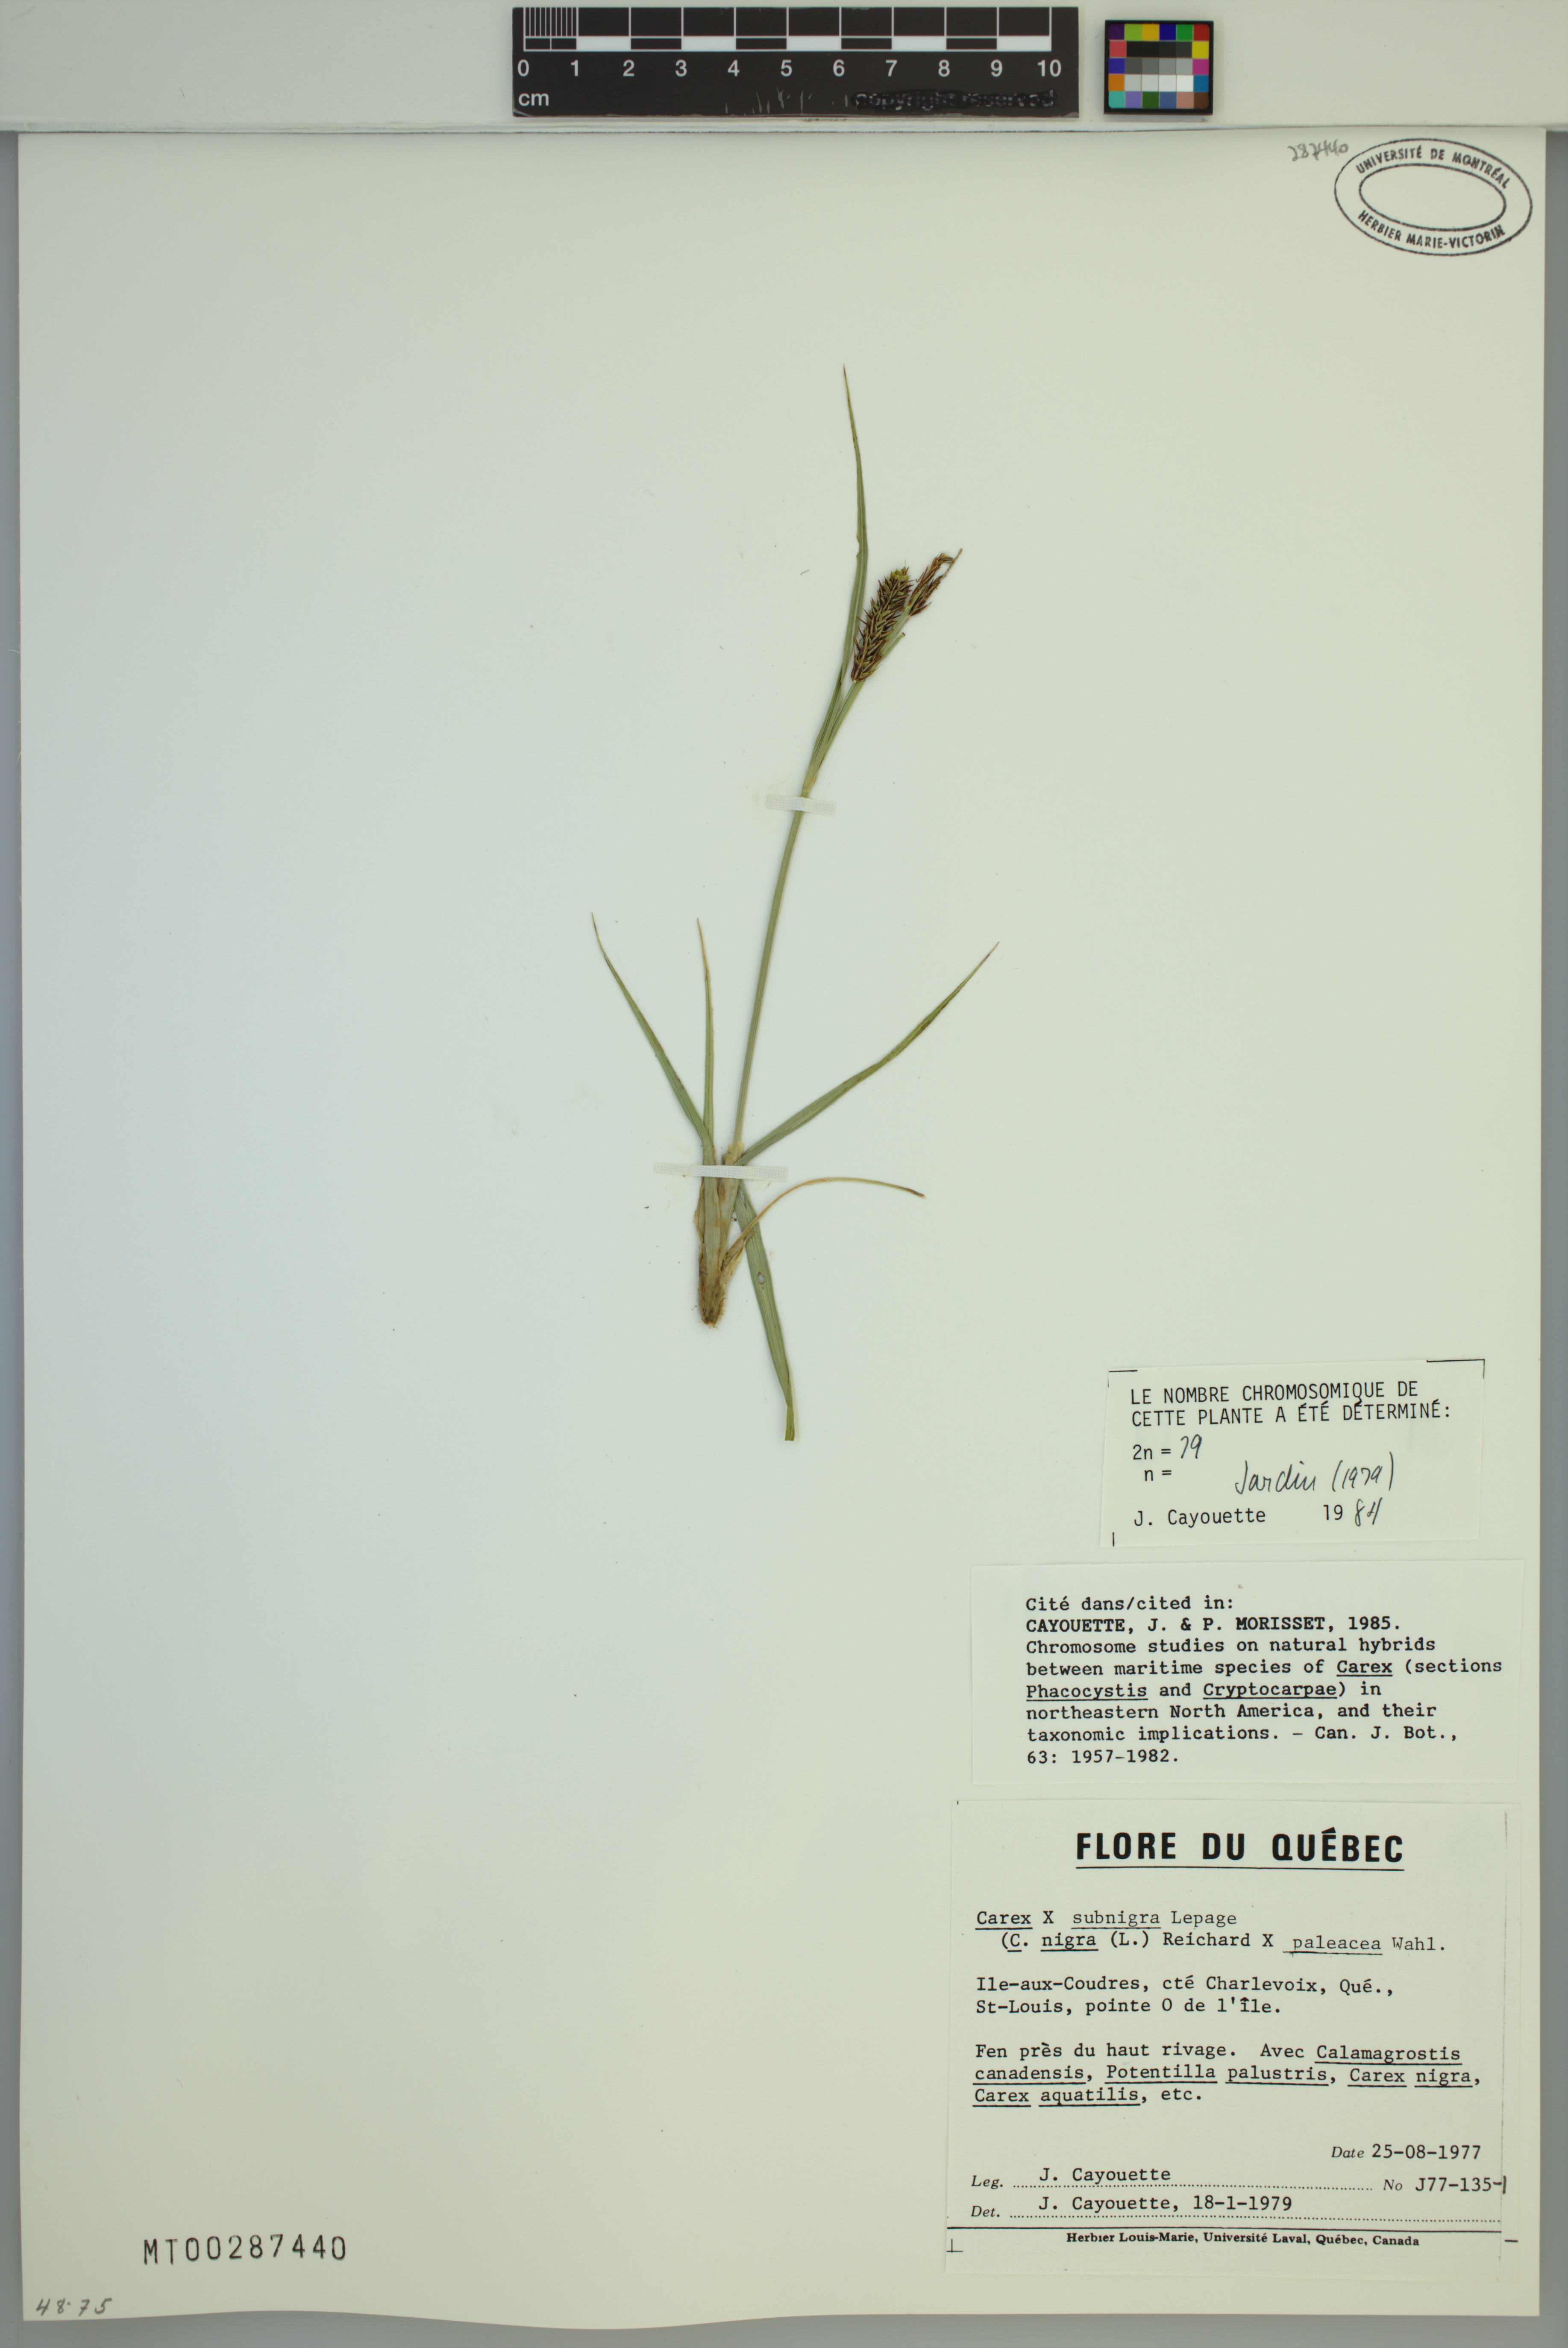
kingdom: Plantae
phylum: Tracheophyta
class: Liliopsida
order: Poales
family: Cyperaceae
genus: Carex
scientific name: Carex vacillans
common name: Sedge
